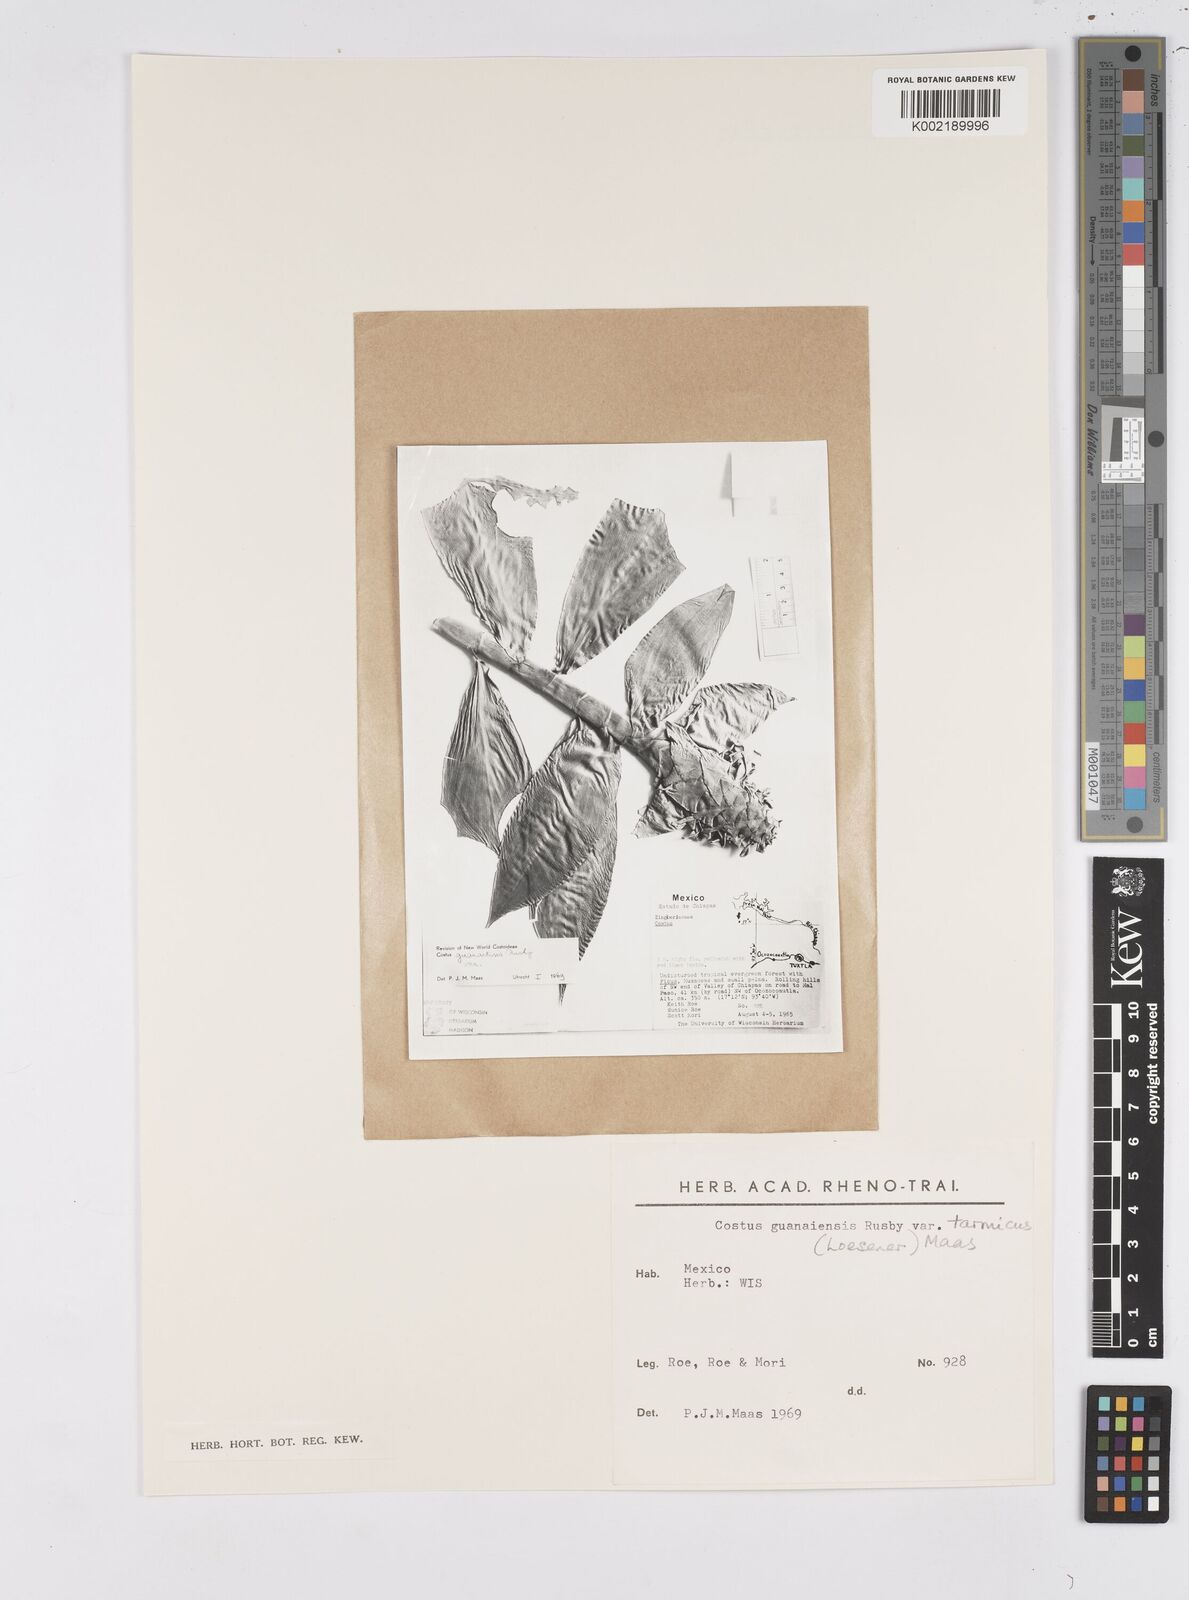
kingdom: Plantae
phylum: Tracheophyta
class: Liliopsida
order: Zingiberales
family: Costaceae
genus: Costus
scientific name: Costus guanaiensis
